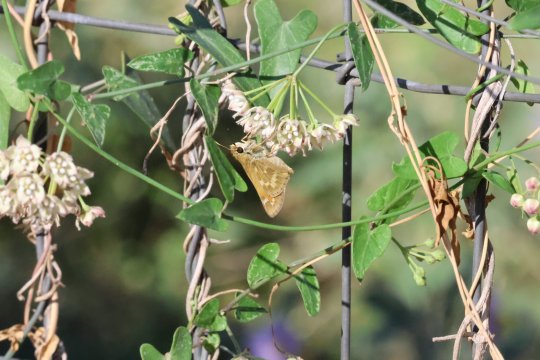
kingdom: Animalia
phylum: Arthropoda
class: Insecta
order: Lepidoptera
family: Hesperiidae
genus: Atalopedes
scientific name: Atalopedes campestris
